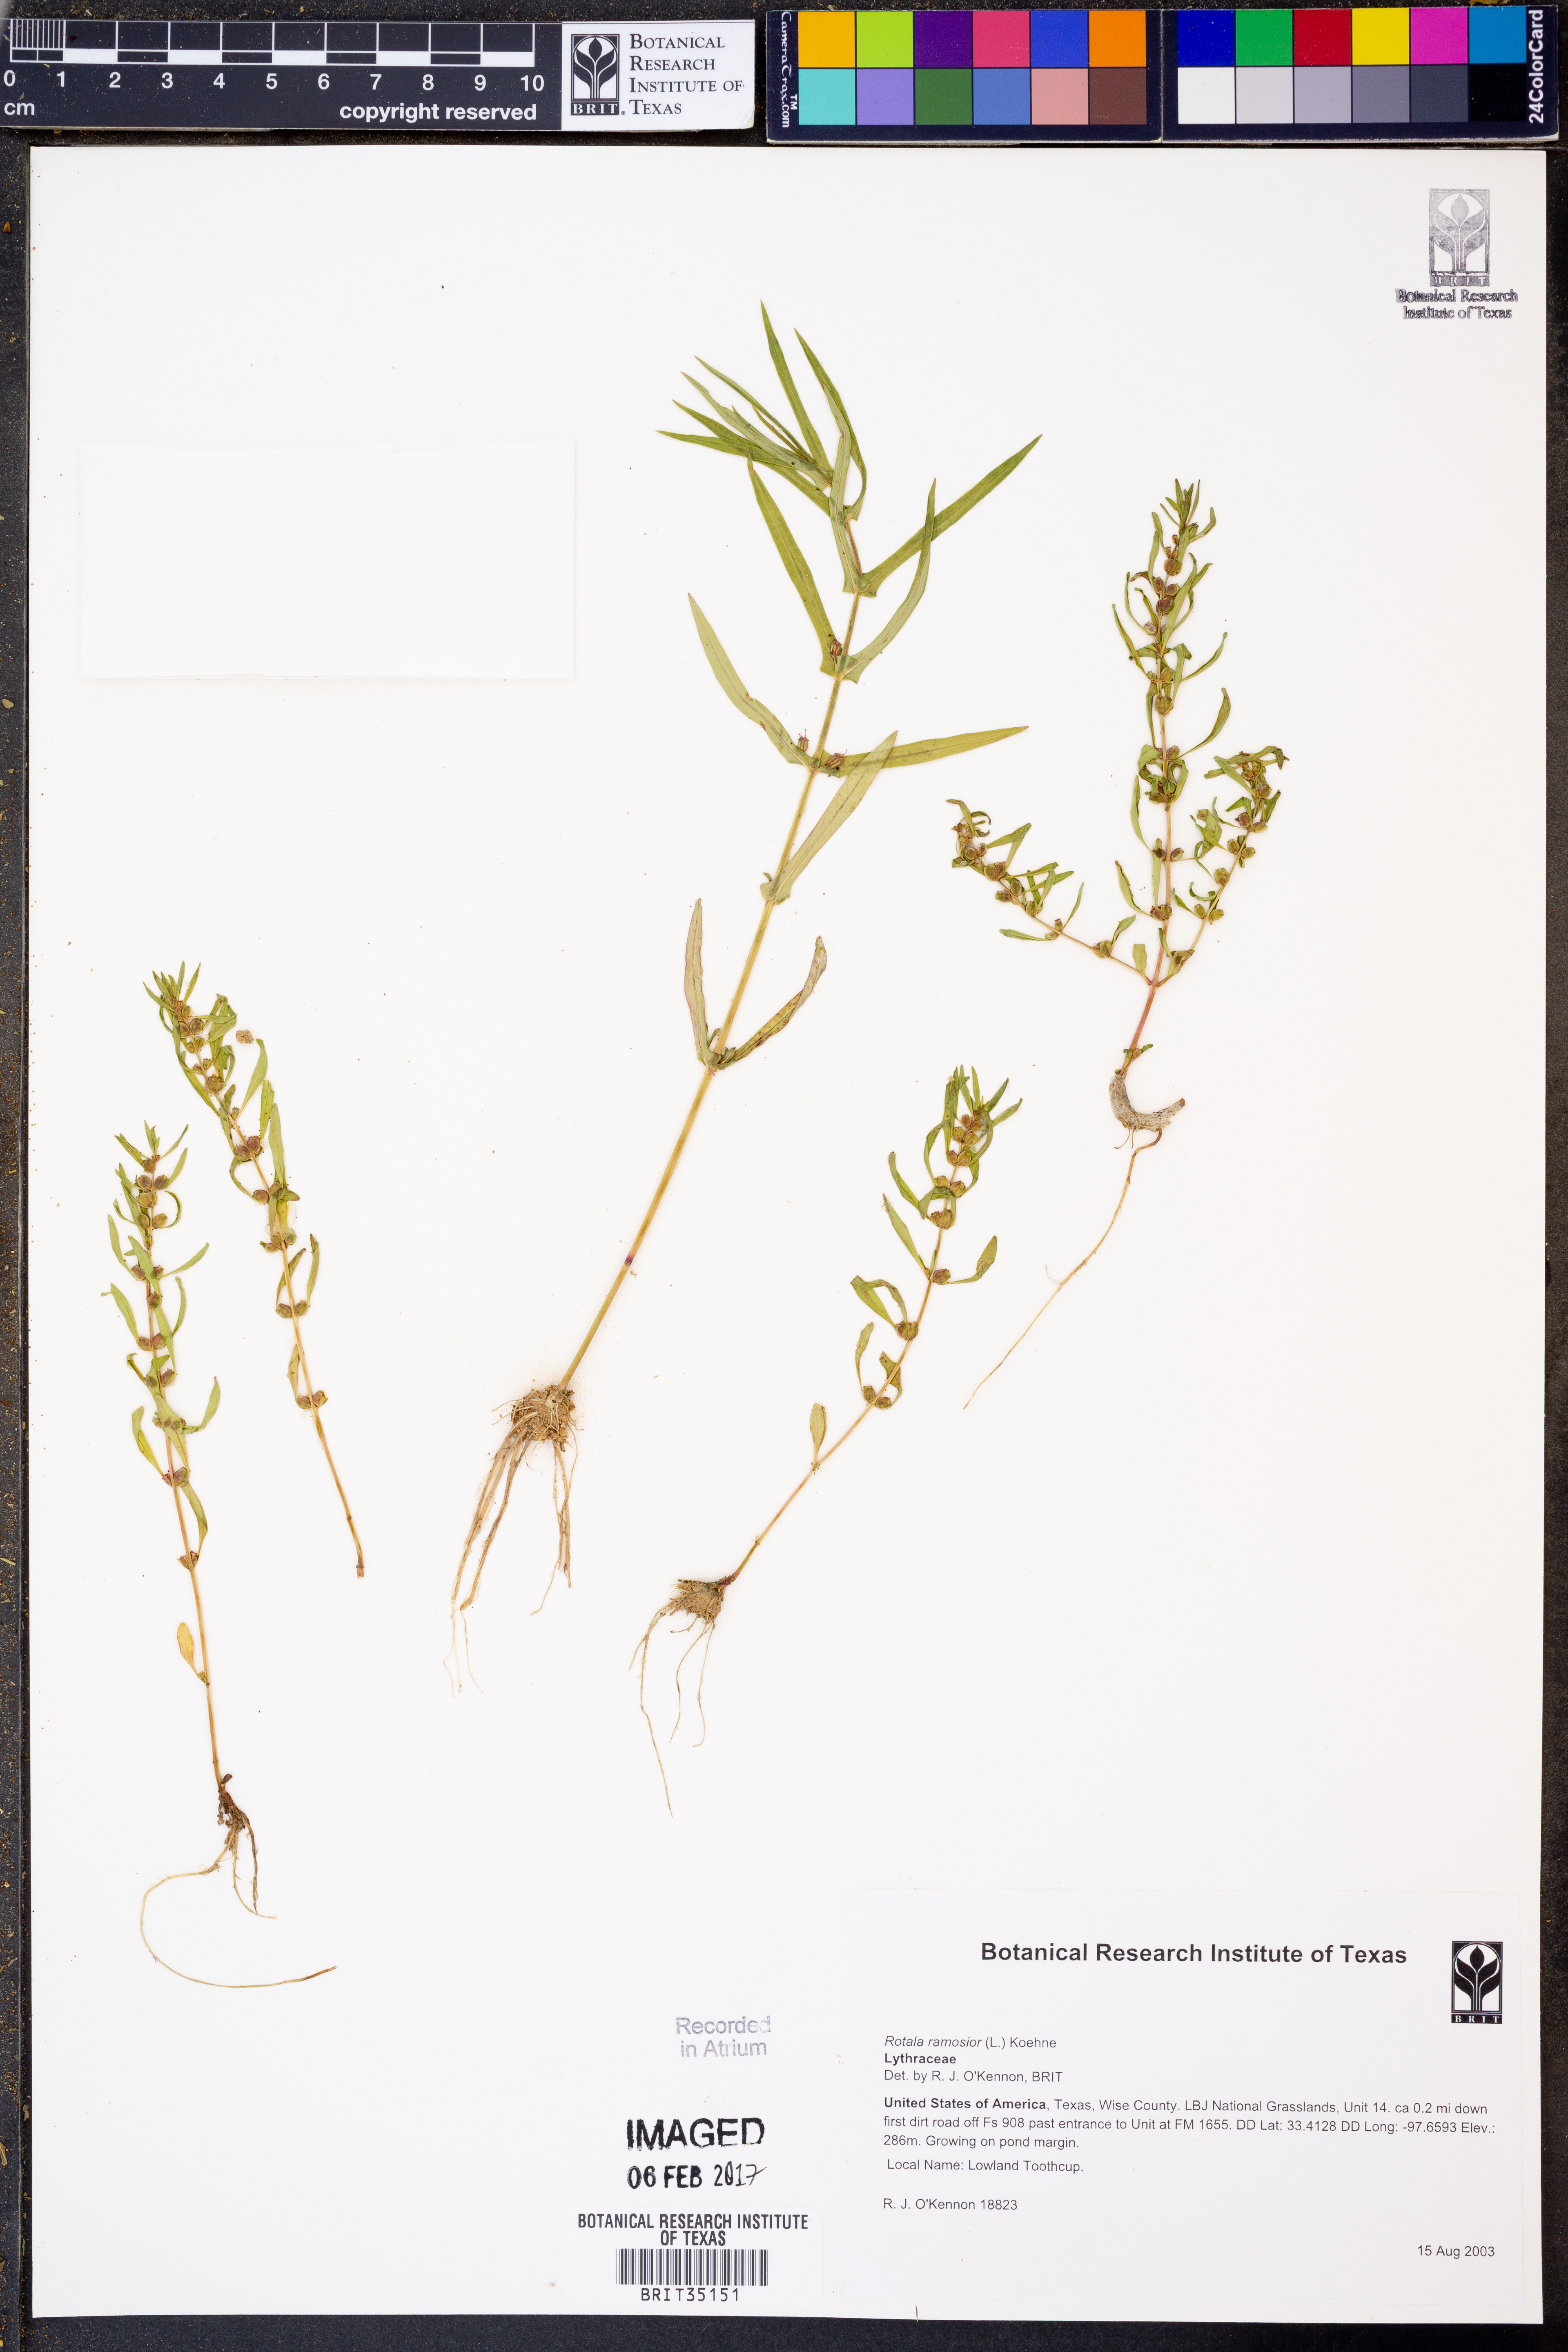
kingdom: Plantae
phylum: Tracheophyta
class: Magnoliopsida
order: Myrtales
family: Lythraceae
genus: Rotala
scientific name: Rotala ramosior
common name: Lowland rotala
